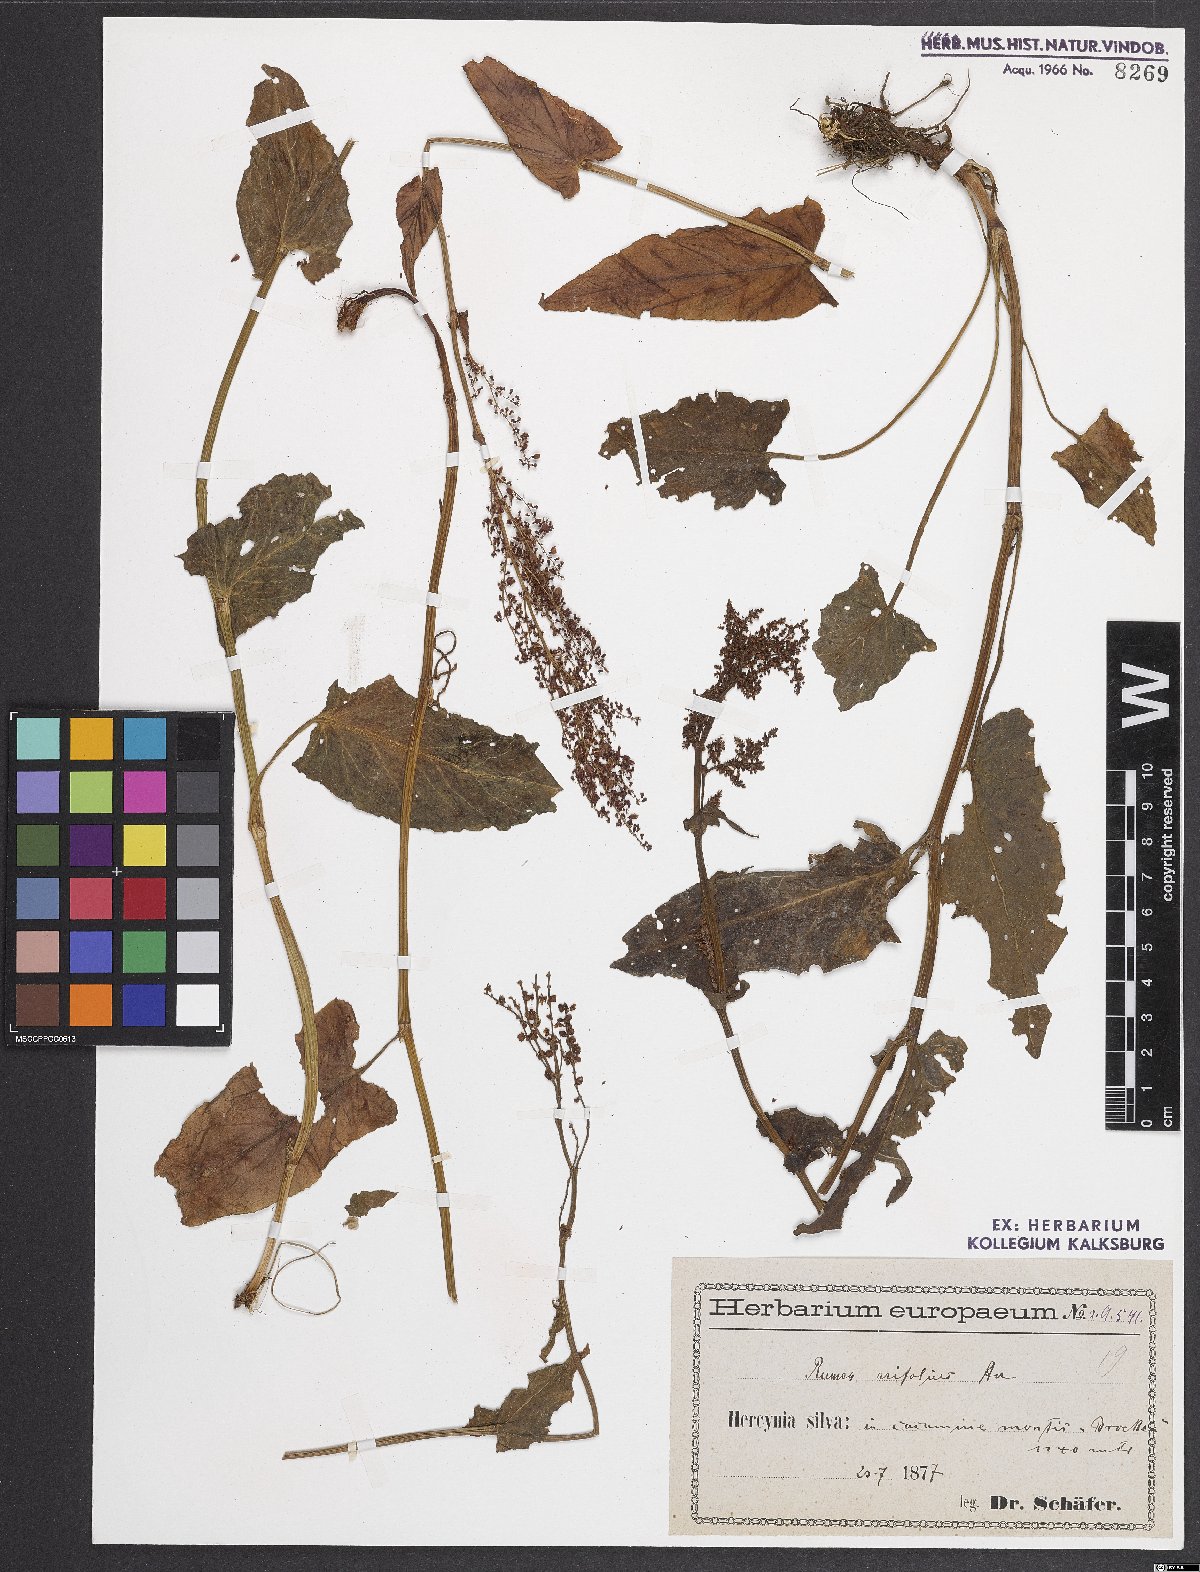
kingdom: Plantae
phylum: Tracheophyta
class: Magnoliopsida
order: Caryophyllales
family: Polygonaceae
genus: Rumex
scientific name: Rumex arifolius
